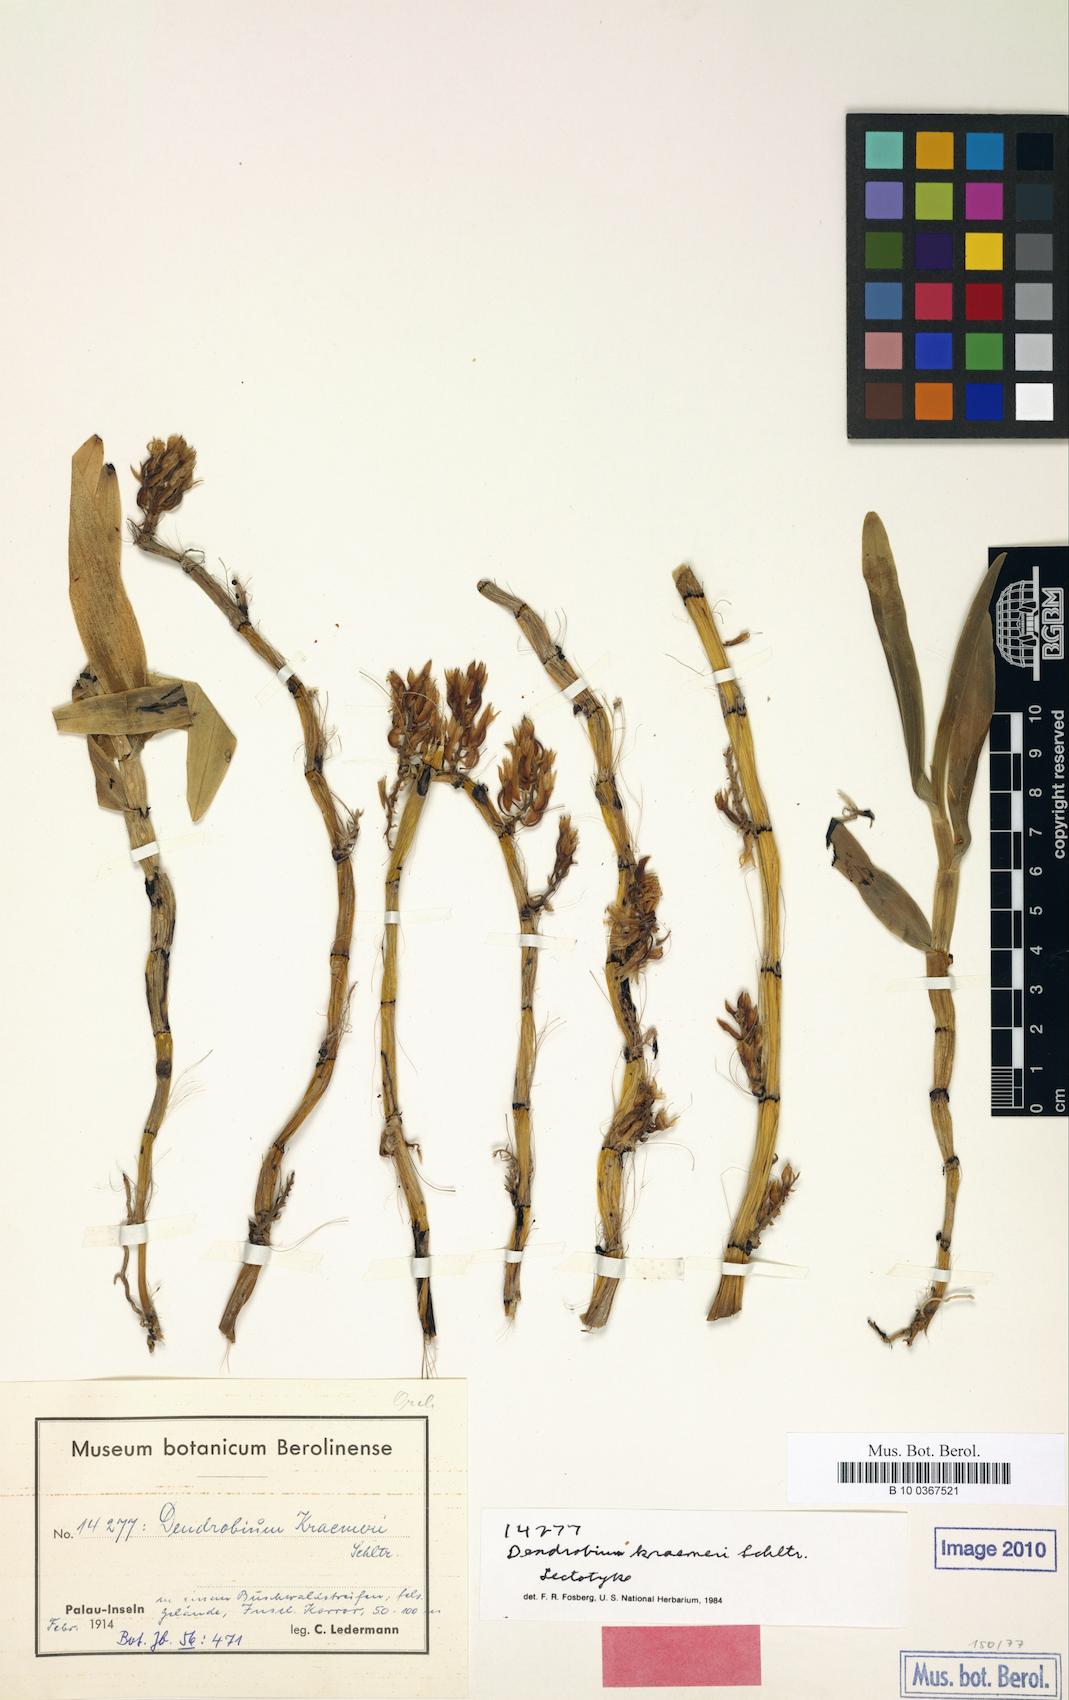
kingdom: Plantae
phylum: Tracheophyta
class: Liliopsida
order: Asparagales
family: Orchidaceae
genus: Dendrobium
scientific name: Dendrobium kraemeri
